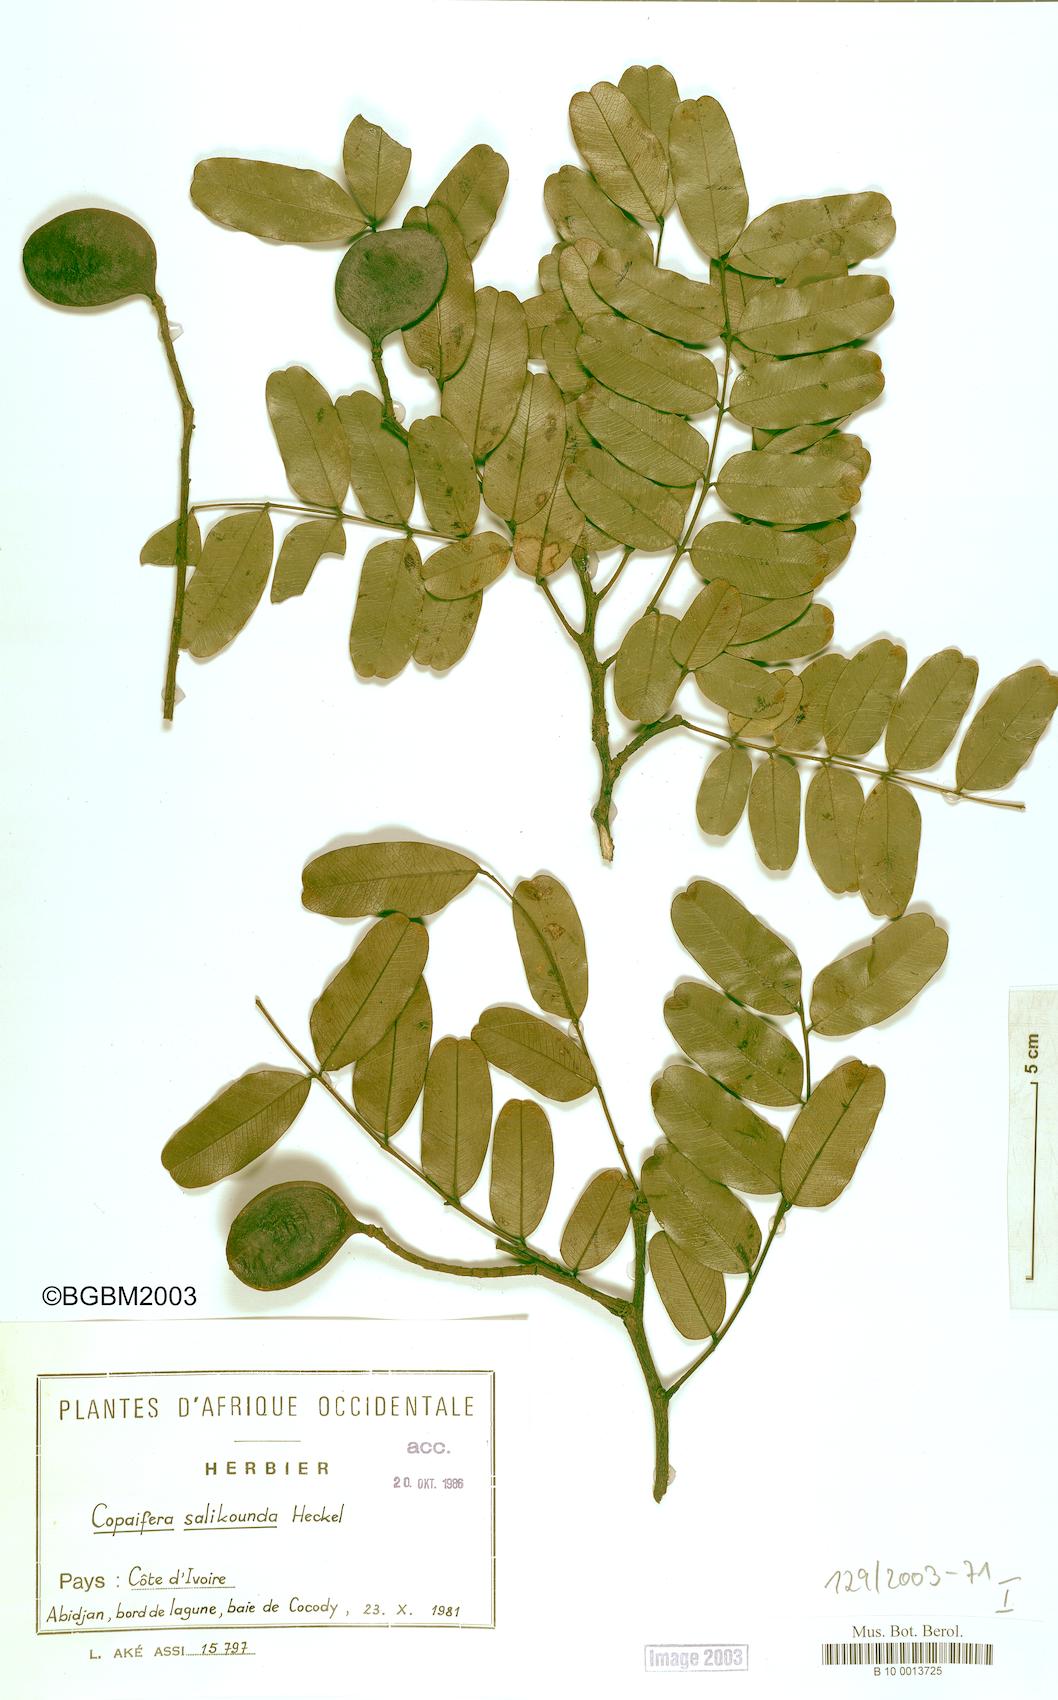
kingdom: Plantae
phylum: Tracheophyta
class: Magnoliopsida
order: Fabales
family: Fabaceae
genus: Copaifera
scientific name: Copaifera salikounda
